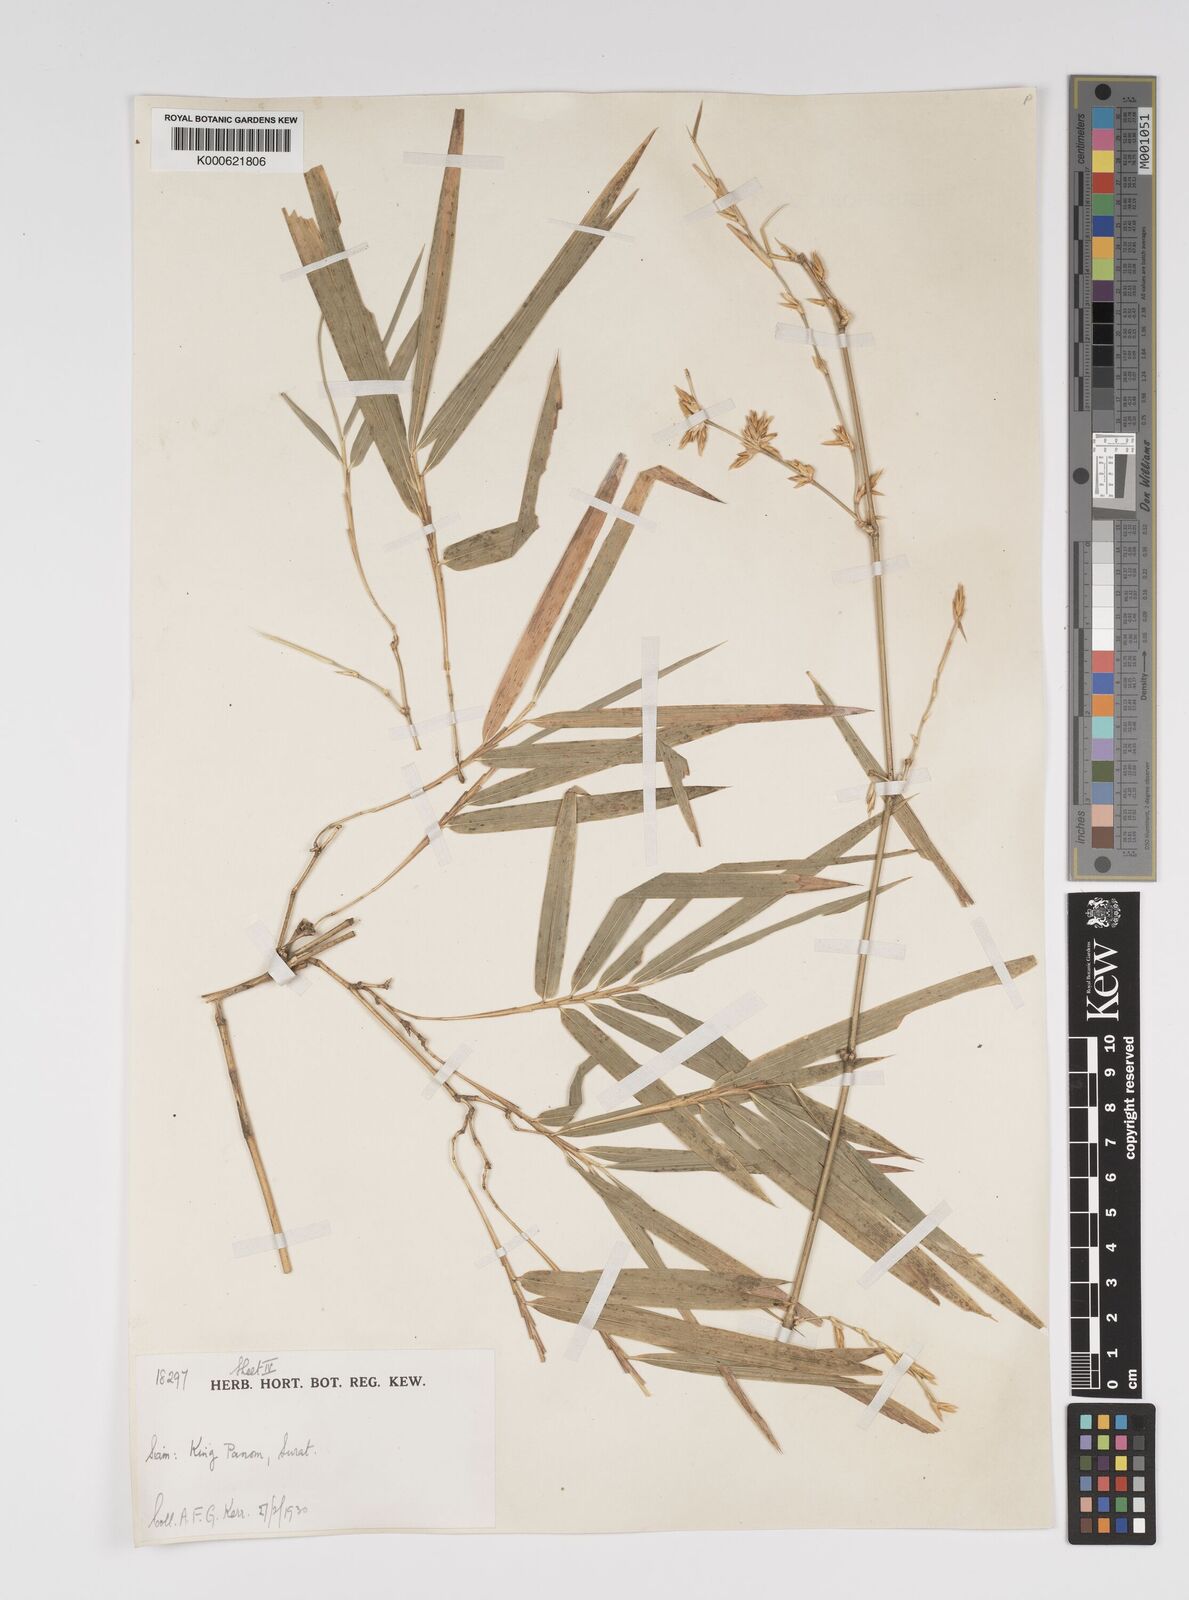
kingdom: Plantae
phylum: Tracheophyta
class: Liliopsida
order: Poales
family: Poaceae
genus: Bambusa
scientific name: Bambusa bambos
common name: Indian thorny bamboo
